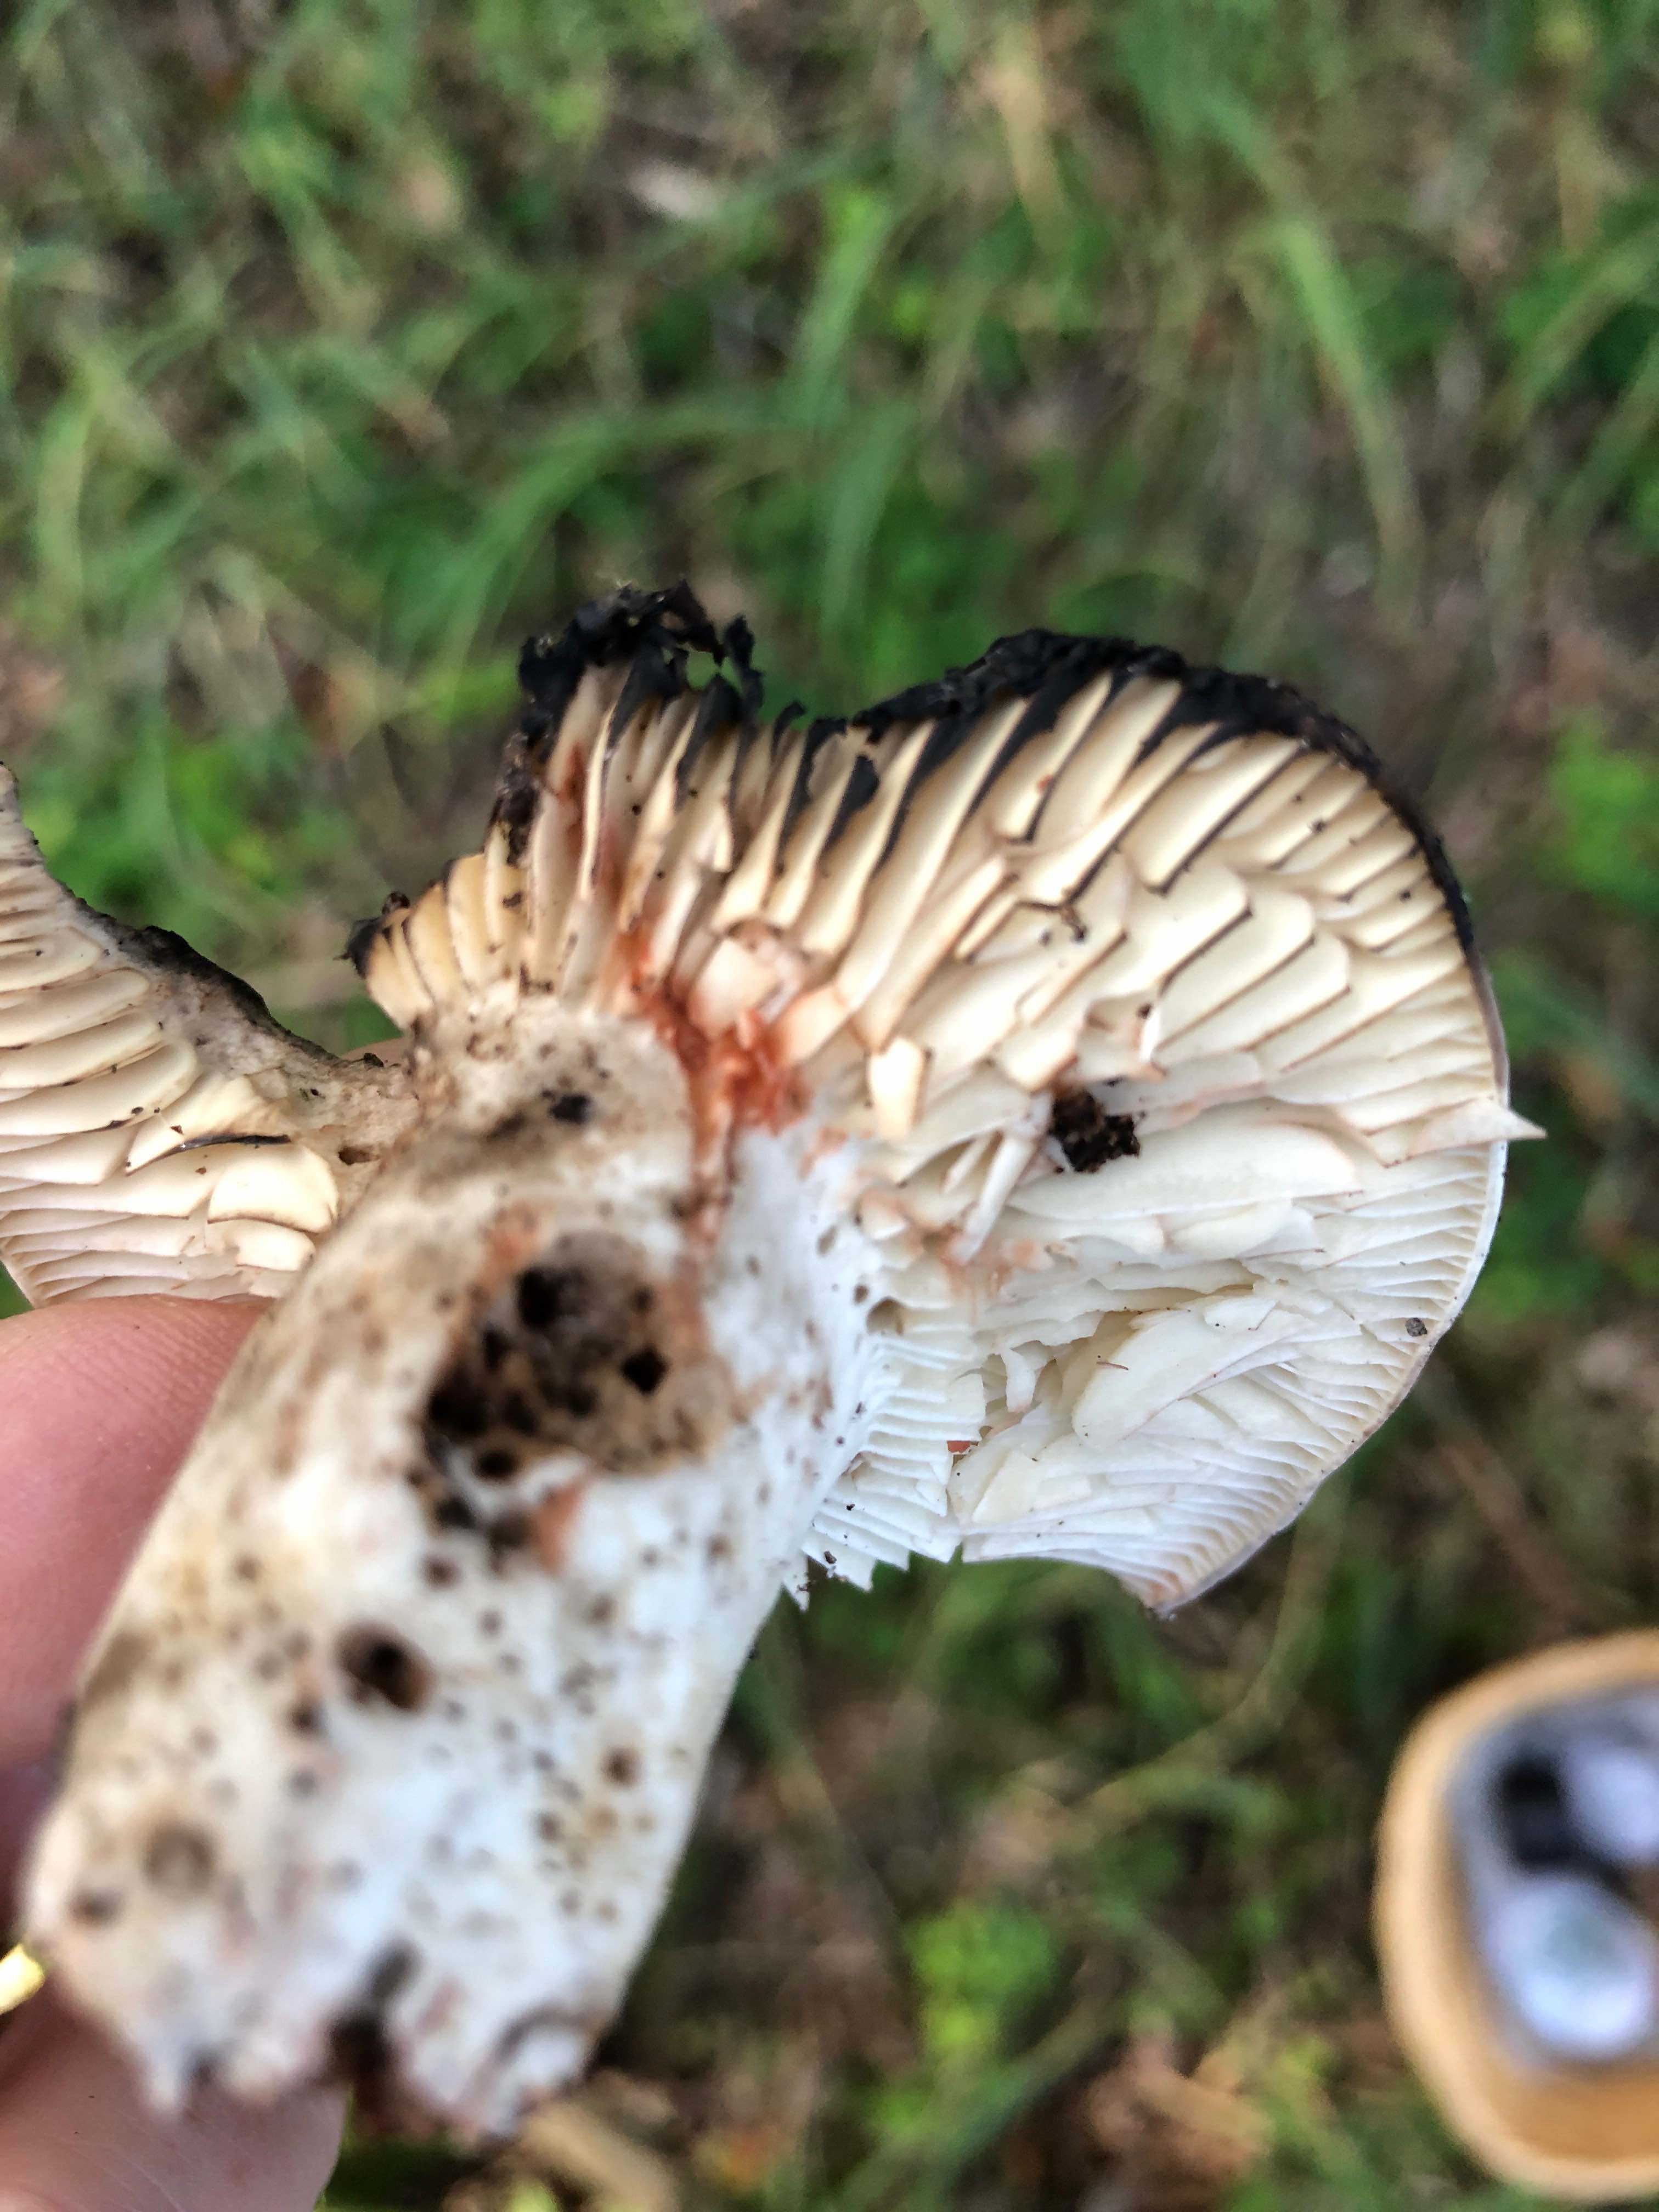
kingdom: Fungi
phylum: Basidiomycota
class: Agaricomycetes
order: Russulales
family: Russulaceae
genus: Russula
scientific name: Russula adusta
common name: sværtende skørhat
